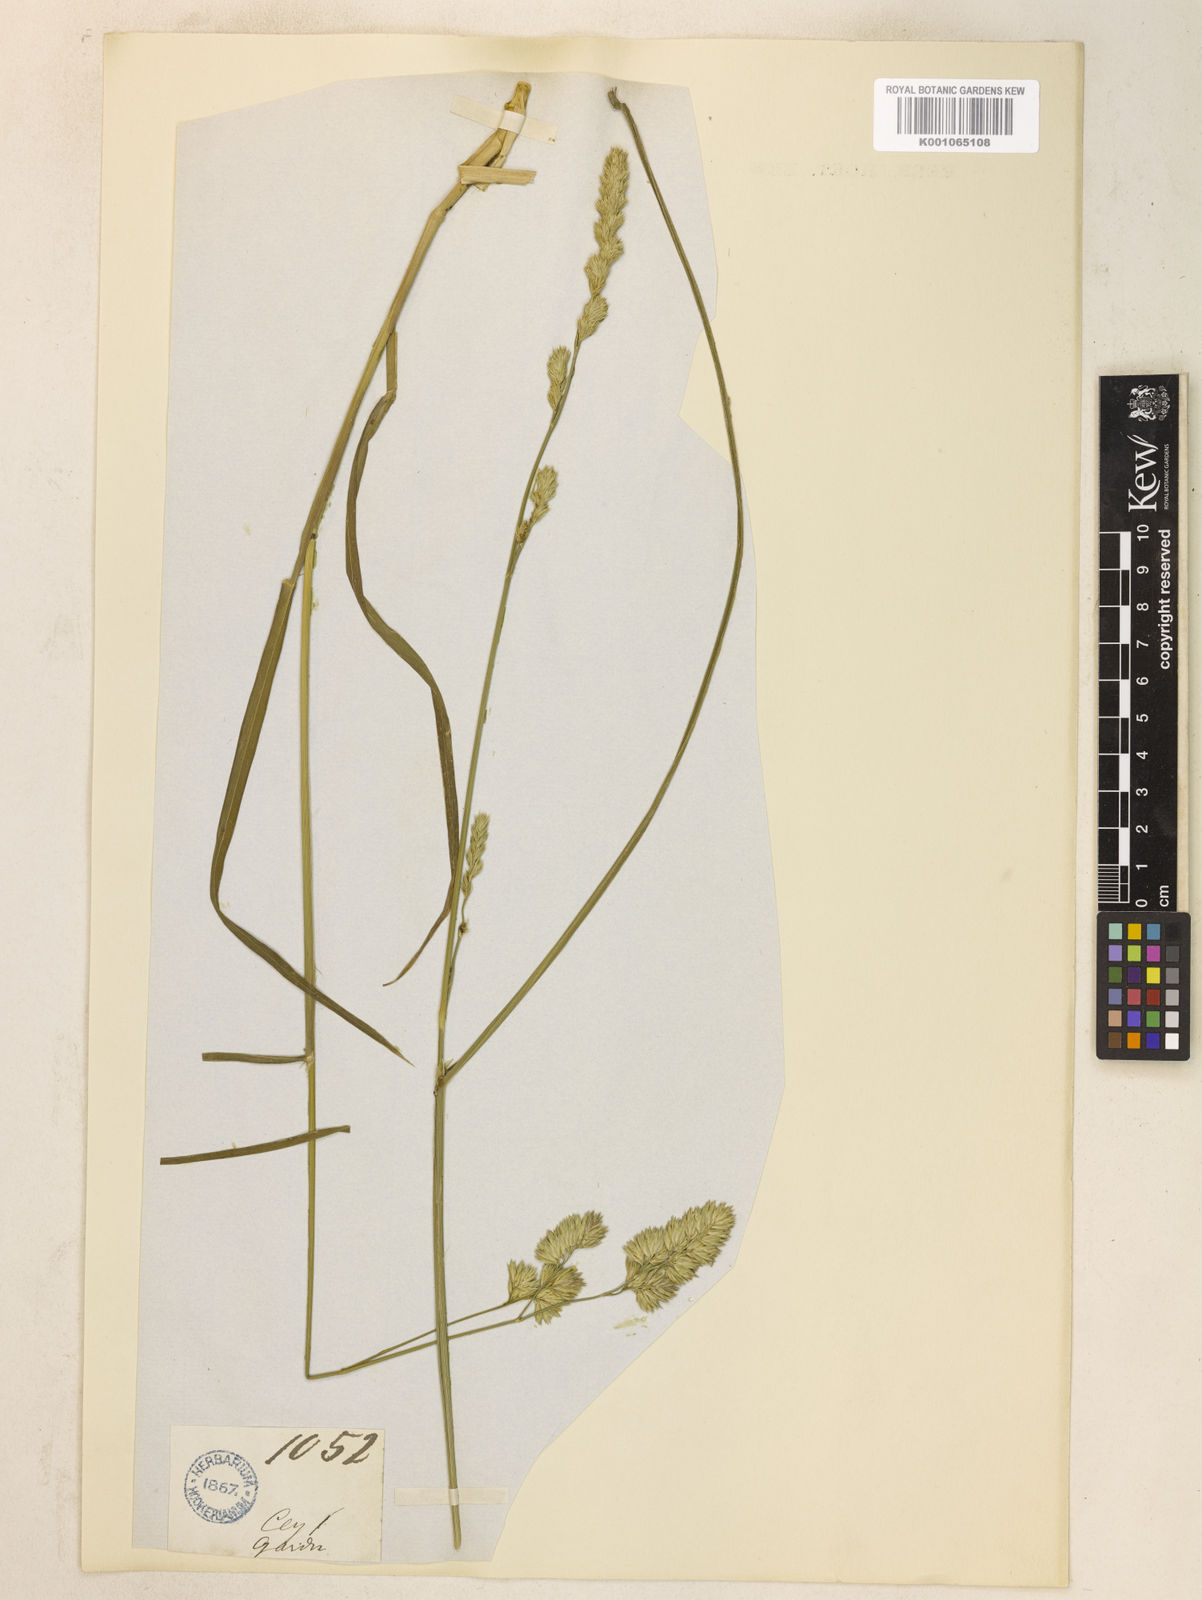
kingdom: Plantae
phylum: Tracheophyta
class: Liliopsida
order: Poales
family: Poaceae
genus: Dactylis
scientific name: Dactylis glomerata
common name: Orchardgrass
